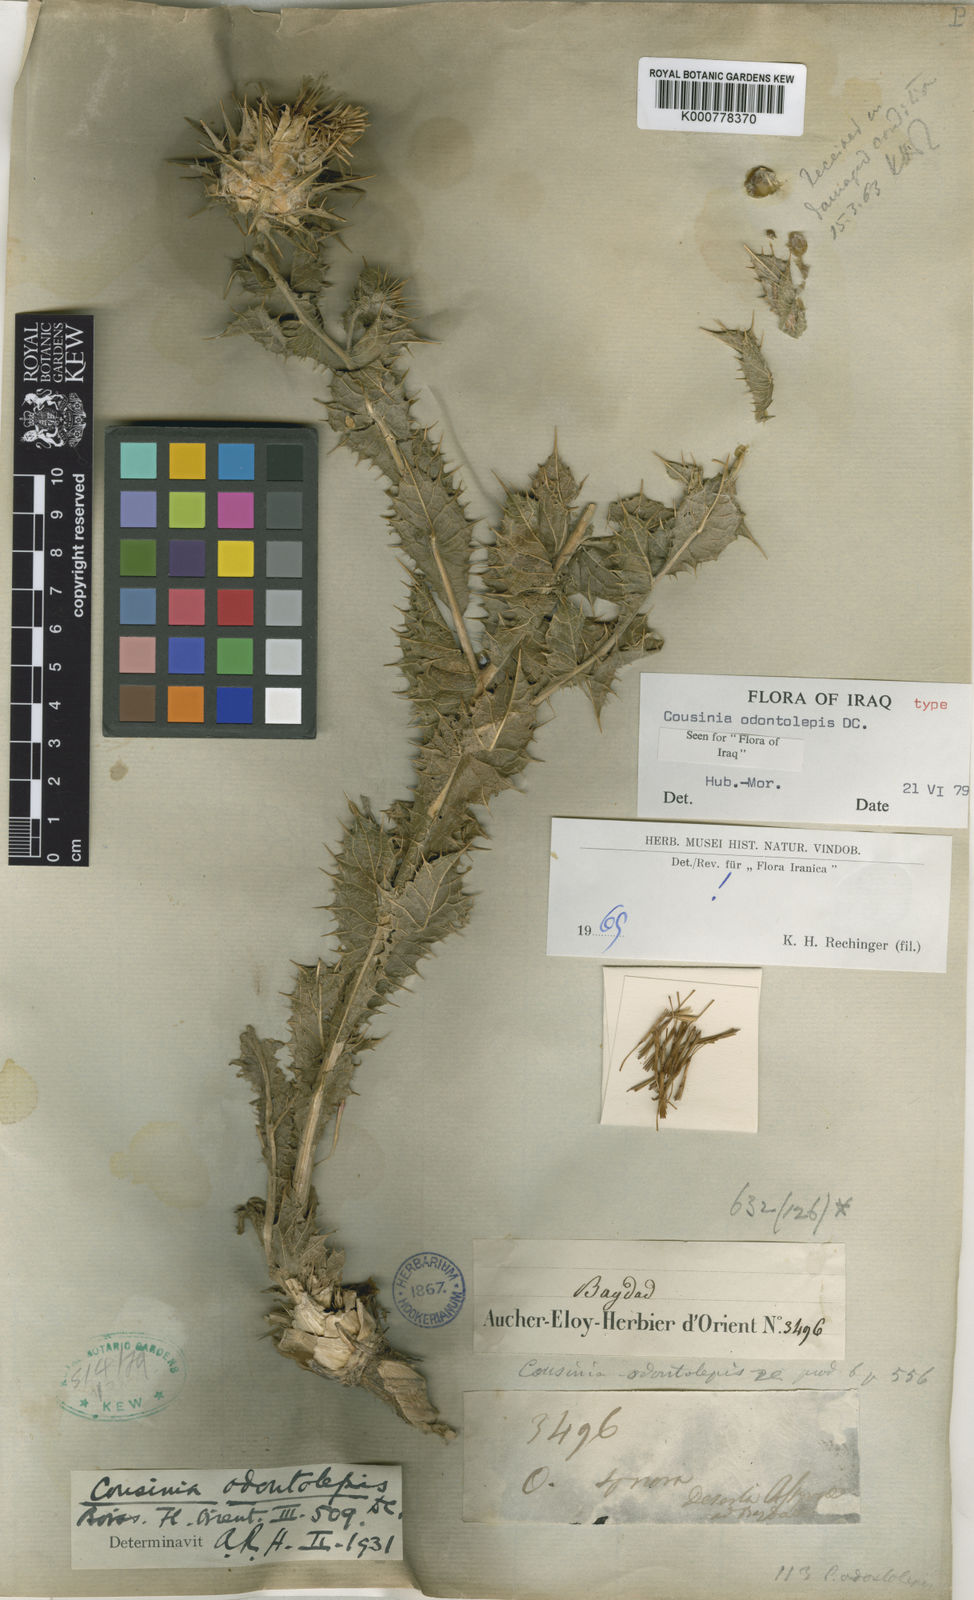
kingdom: Plantae
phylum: Tracheophyta
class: Magnoliopsida
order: Asterales
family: Asteraceae
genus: Cousinia
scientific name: Cousinia odontolepis
